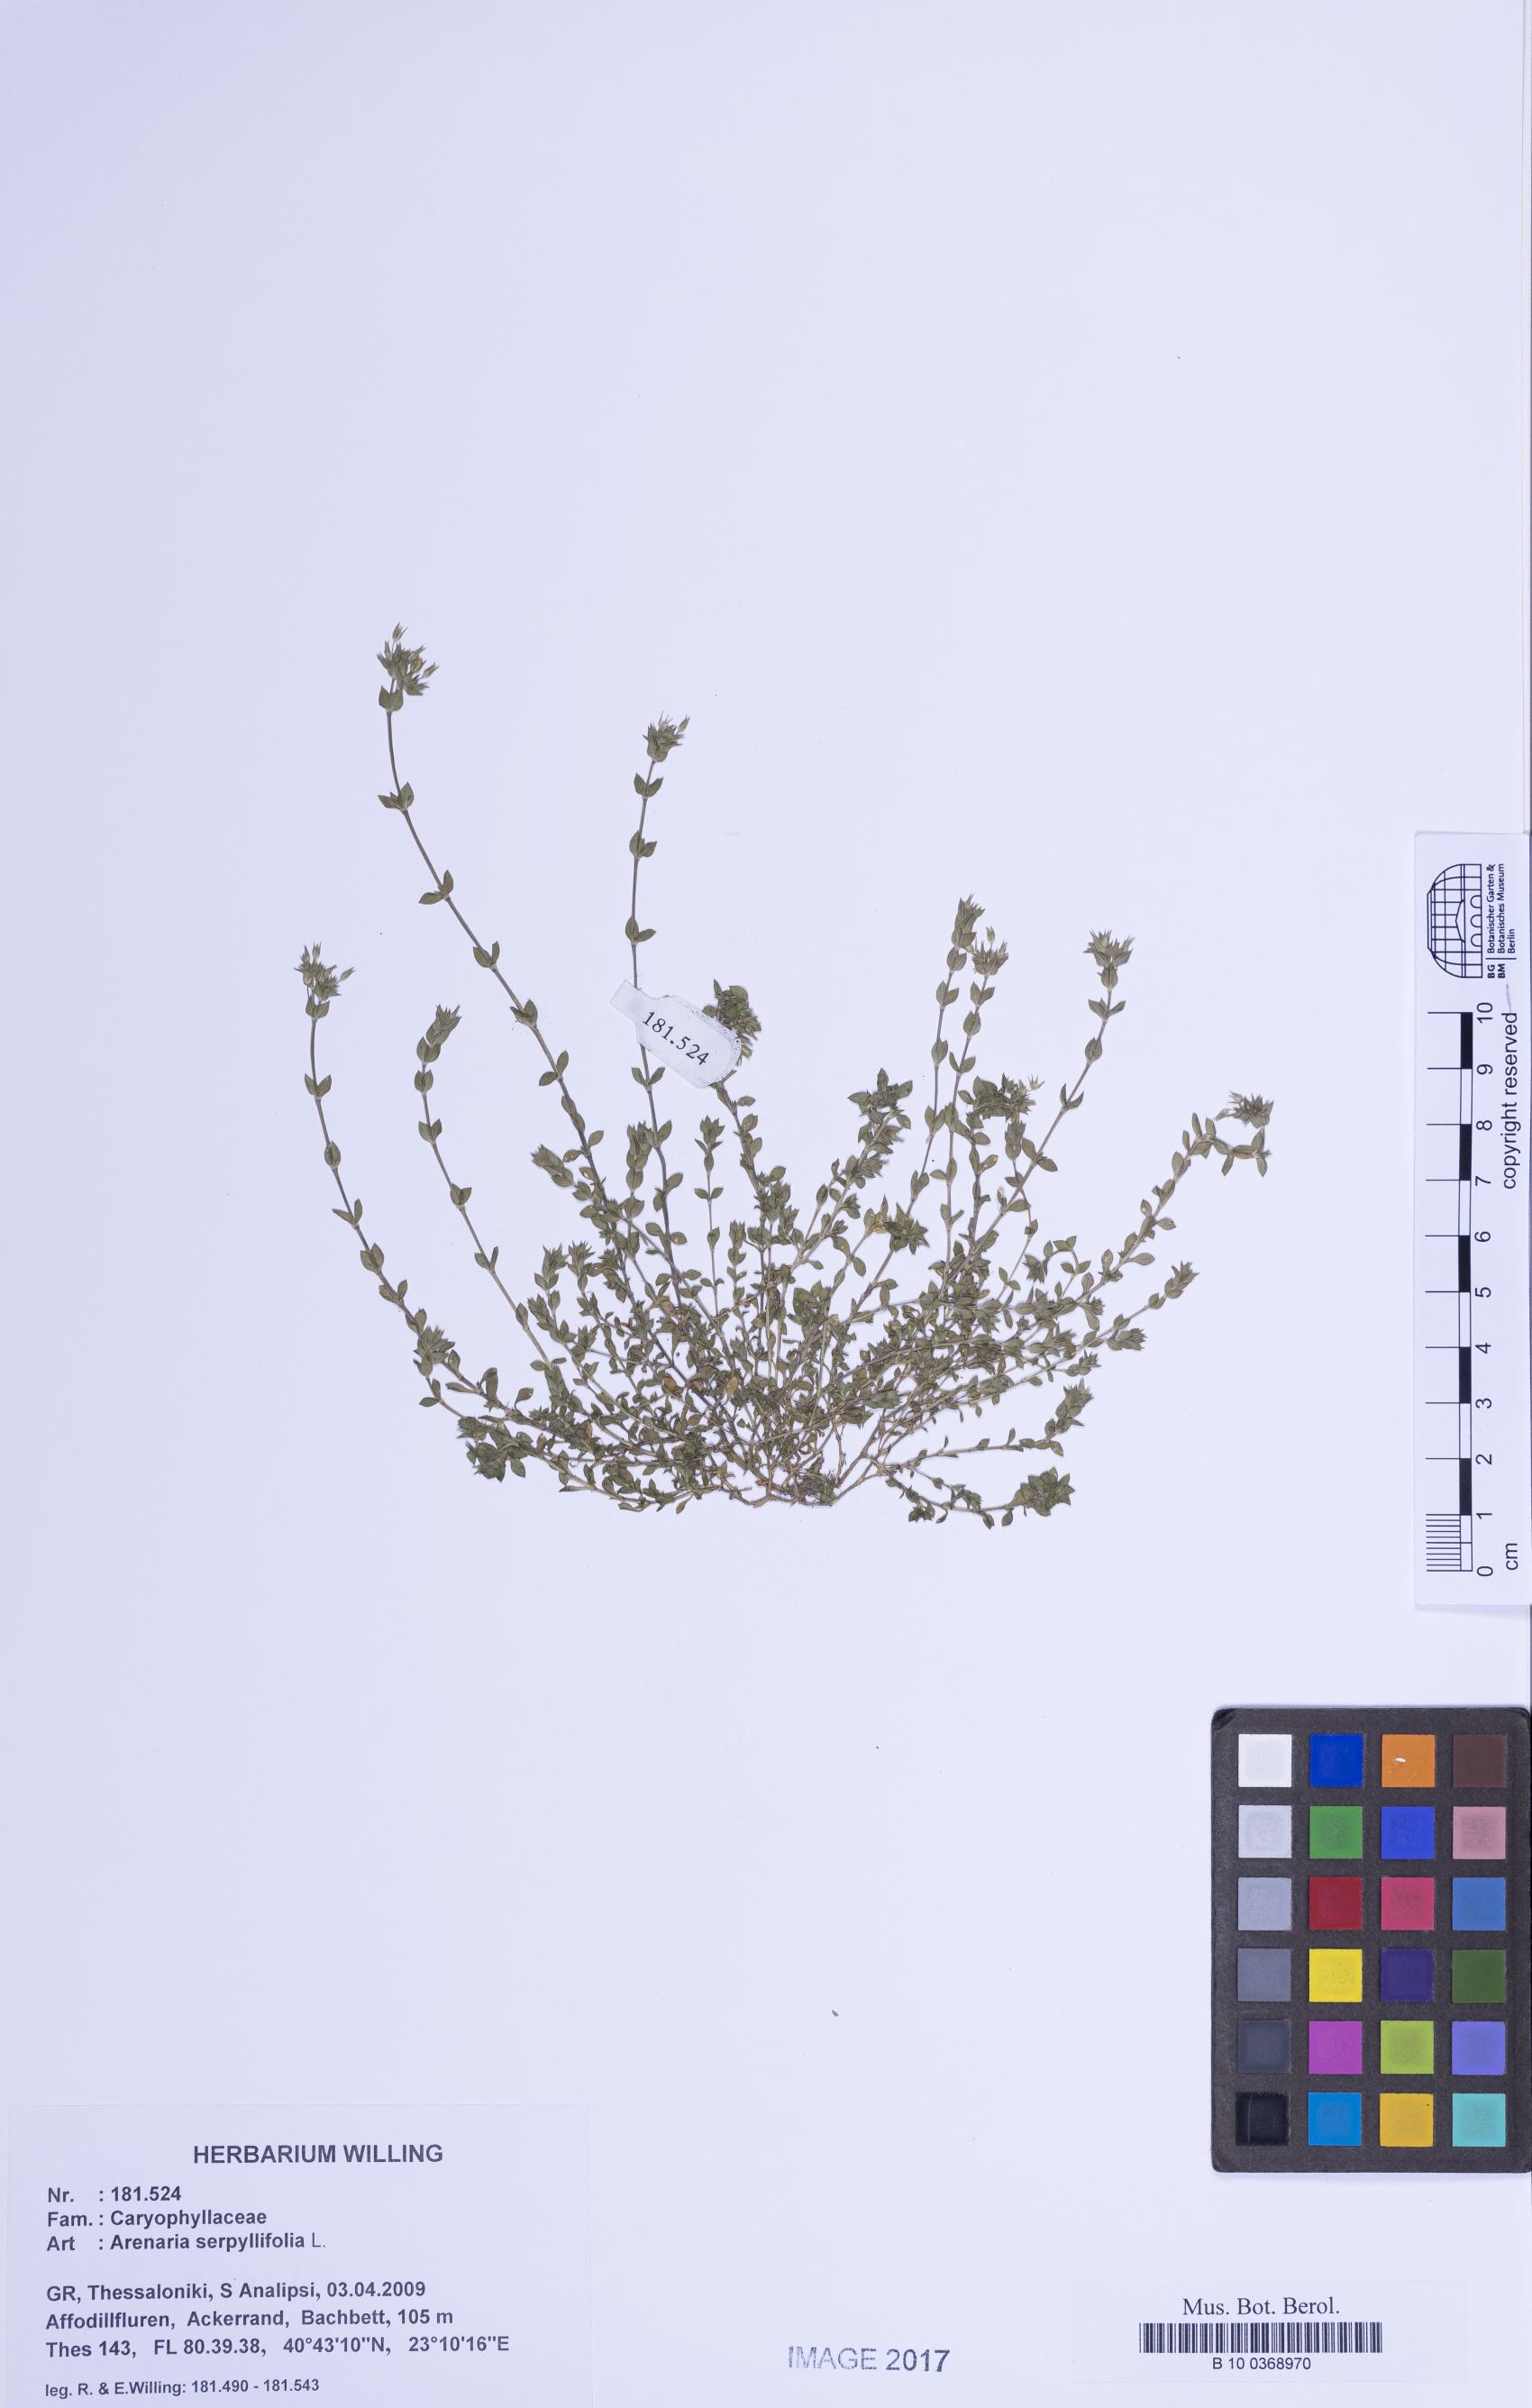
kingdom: Plantae
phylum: Tracheophyta
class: Magnoliopsida
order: Caryophyllales
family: Caryophyllaceae
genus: Arenaria
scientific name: Arenaria serpyllifolia
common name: Thyme-leaved sandwort
